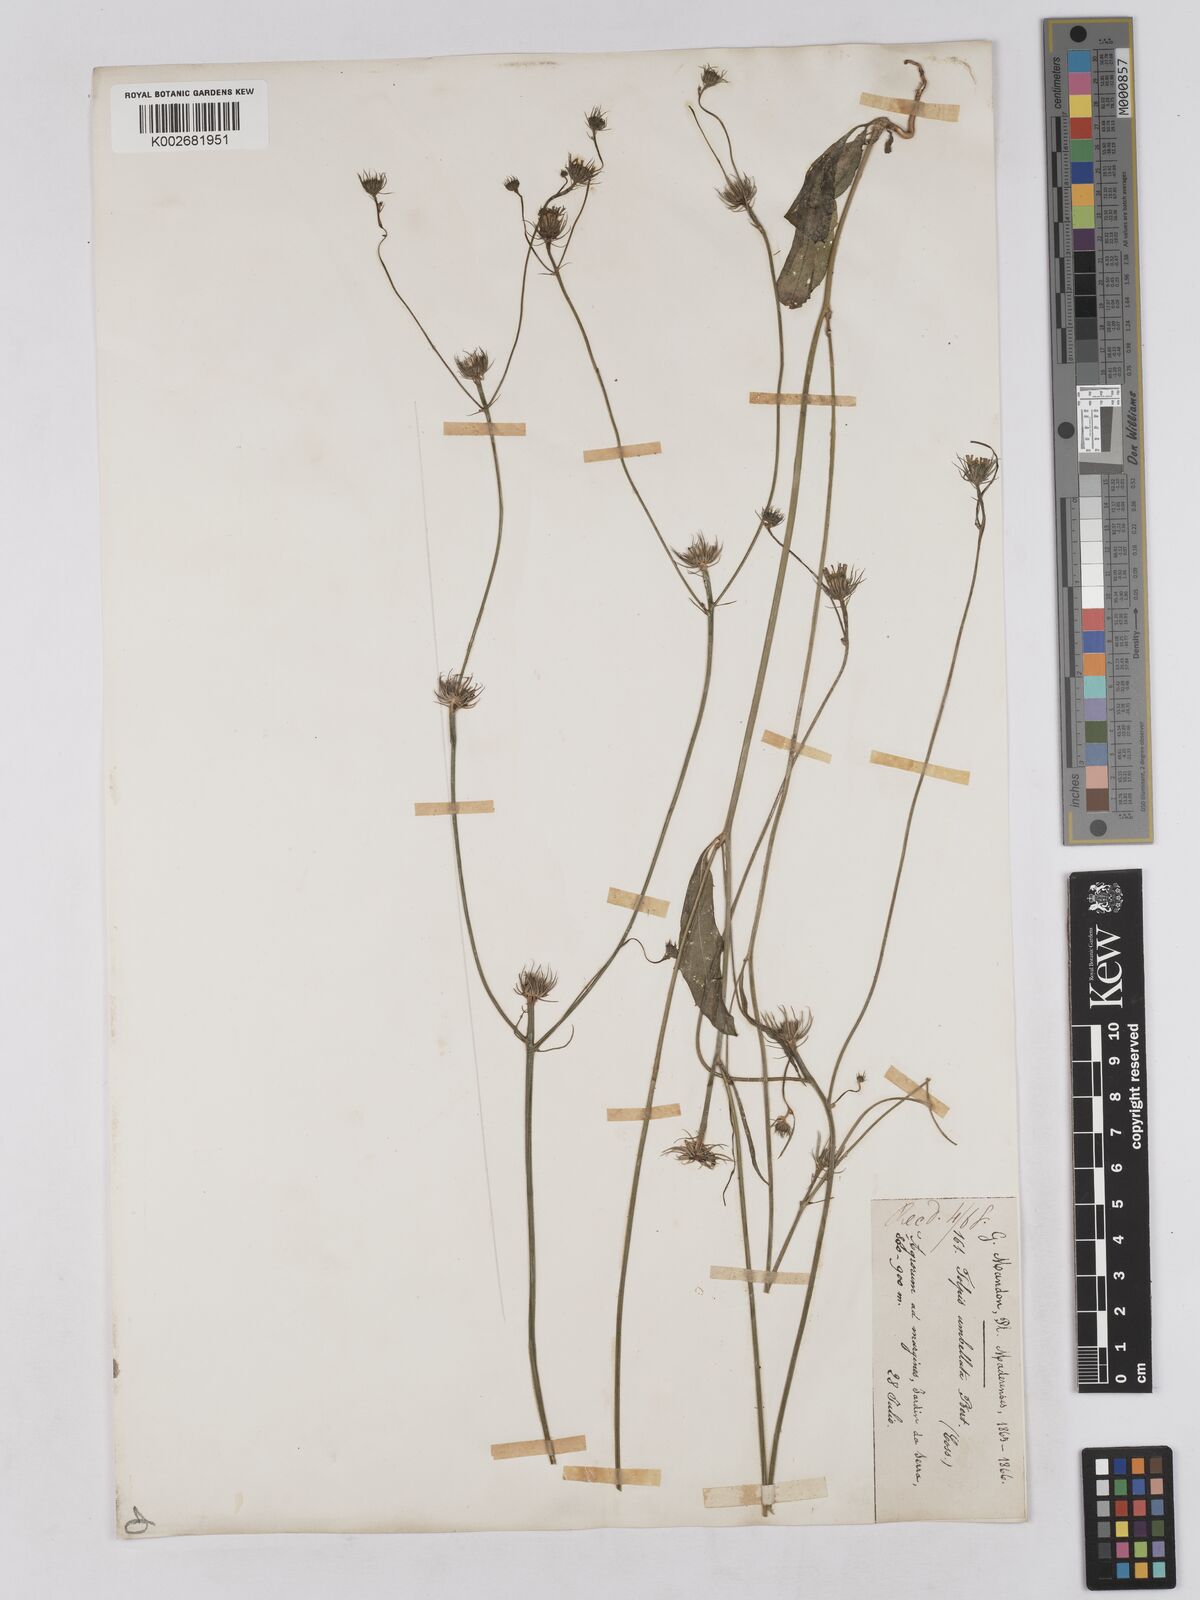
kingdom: Plantae
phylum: Tracheophyta
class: Magnoliopsida
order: Asterales
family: Asteraceae
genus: Tolpis
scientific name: Tolpis umbellata
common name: Yellow hawkweed
